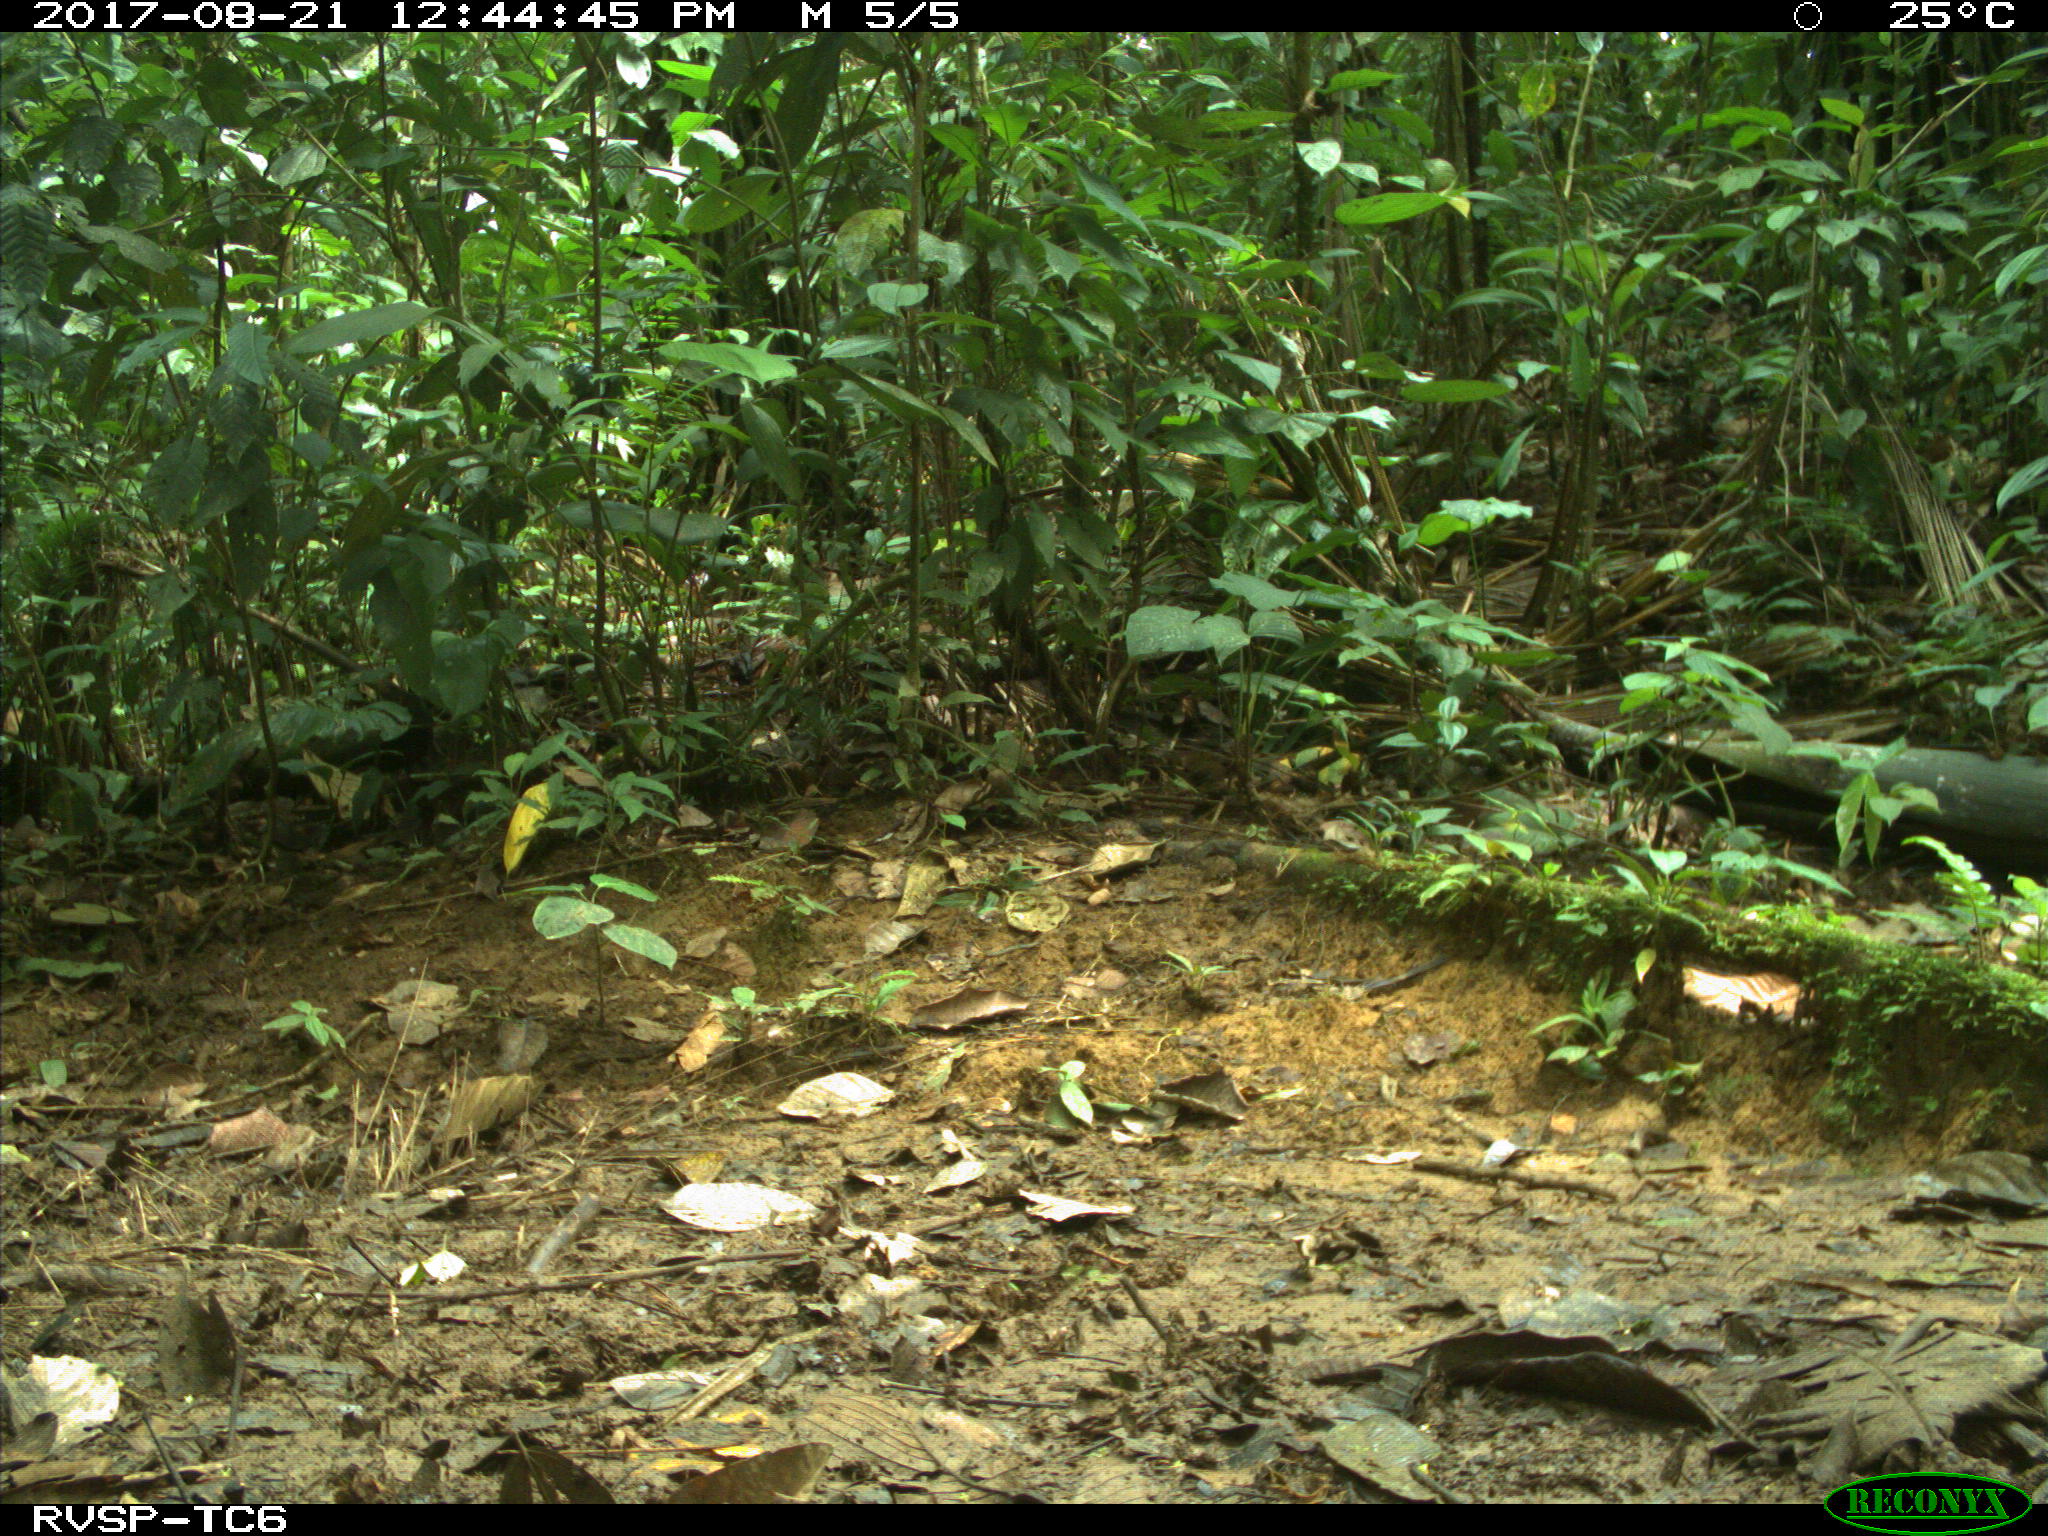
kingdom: Animalia
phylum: Chordata
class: Mammalia
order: Carnivora
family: Felidae
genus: Puma
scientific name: Puma concolor
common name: Puma
